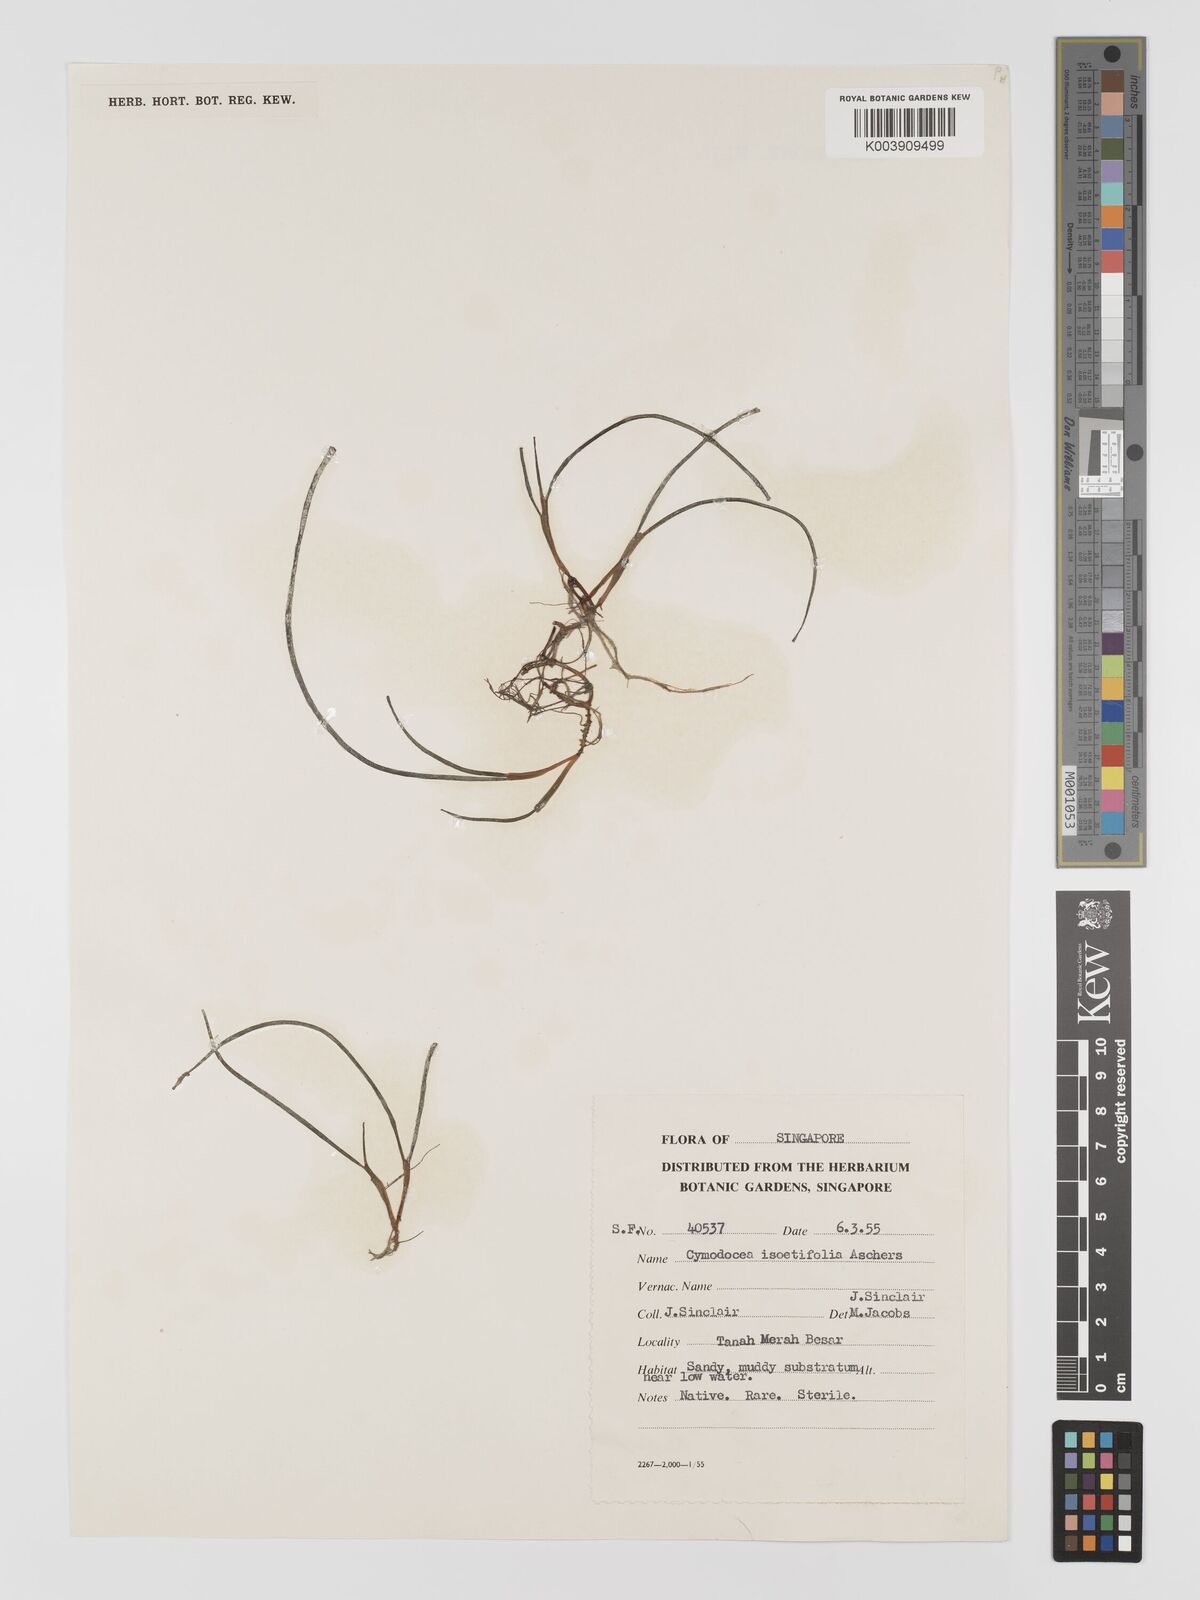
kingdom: Plantae
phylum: Tracheophyta
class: Liliopsida
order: Alismatales
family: Cymodoceaceae
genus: Syringodium
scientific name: Syringodium isoetifolium
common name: Species code: si
